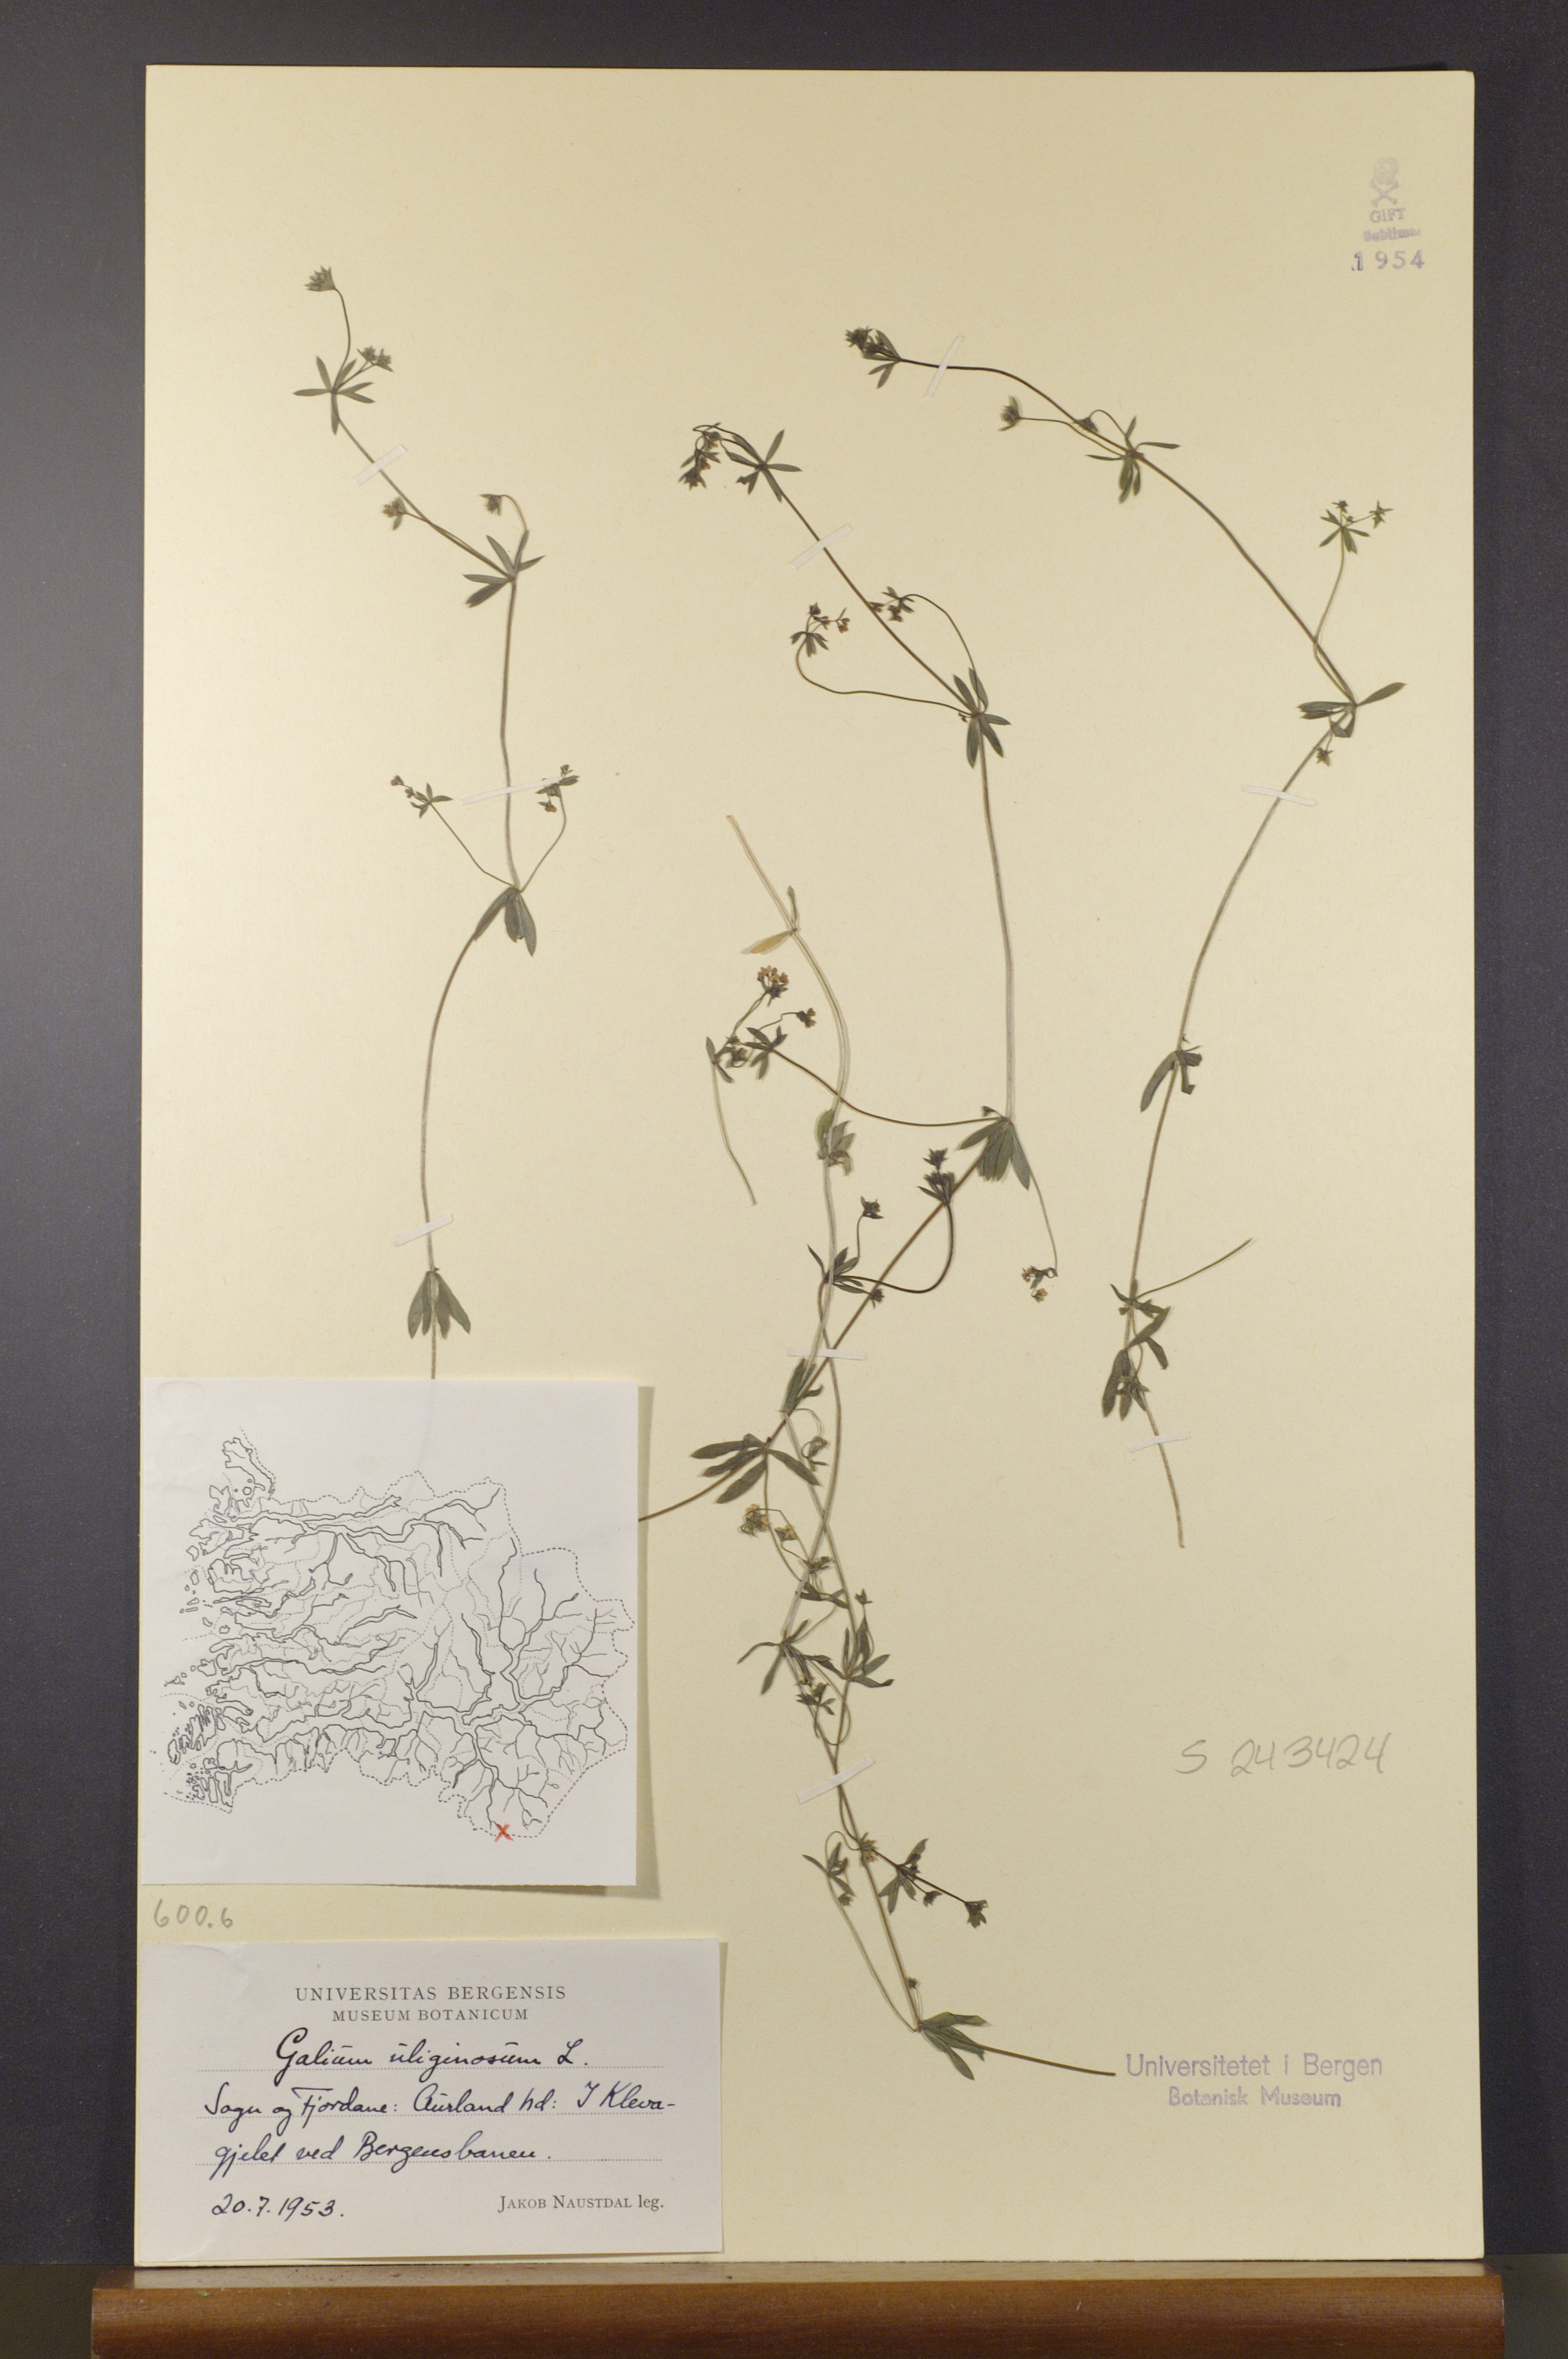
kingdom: Plantae
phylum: Tracheophyta
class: Magnoliopsida
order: Gentianales
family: Rubiaceae
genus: Galium
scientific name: Galium uliginosum
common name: Fen bedstraw
